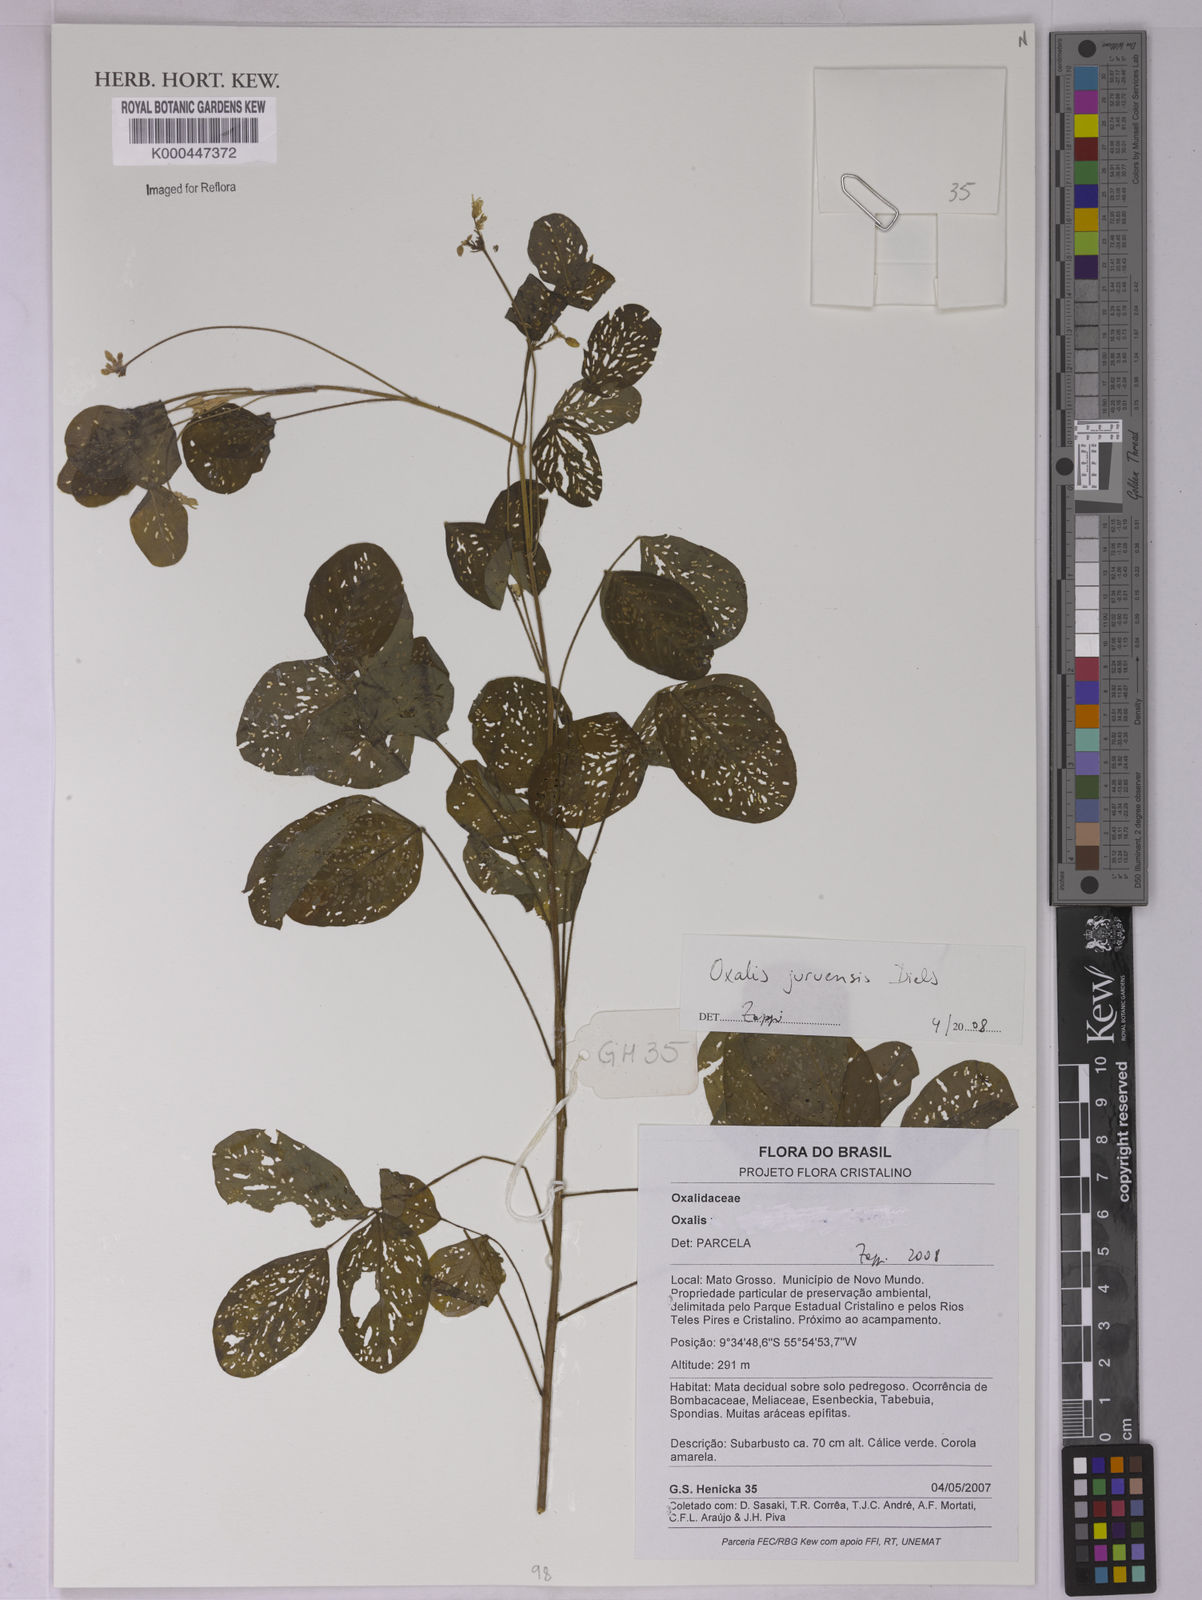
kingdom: Plantae
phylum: Tracheophyta
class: Magnoliopsida
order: Oxalidales
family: Oxalidaceae
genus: Oxalis
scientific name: Oxalis juruensis
